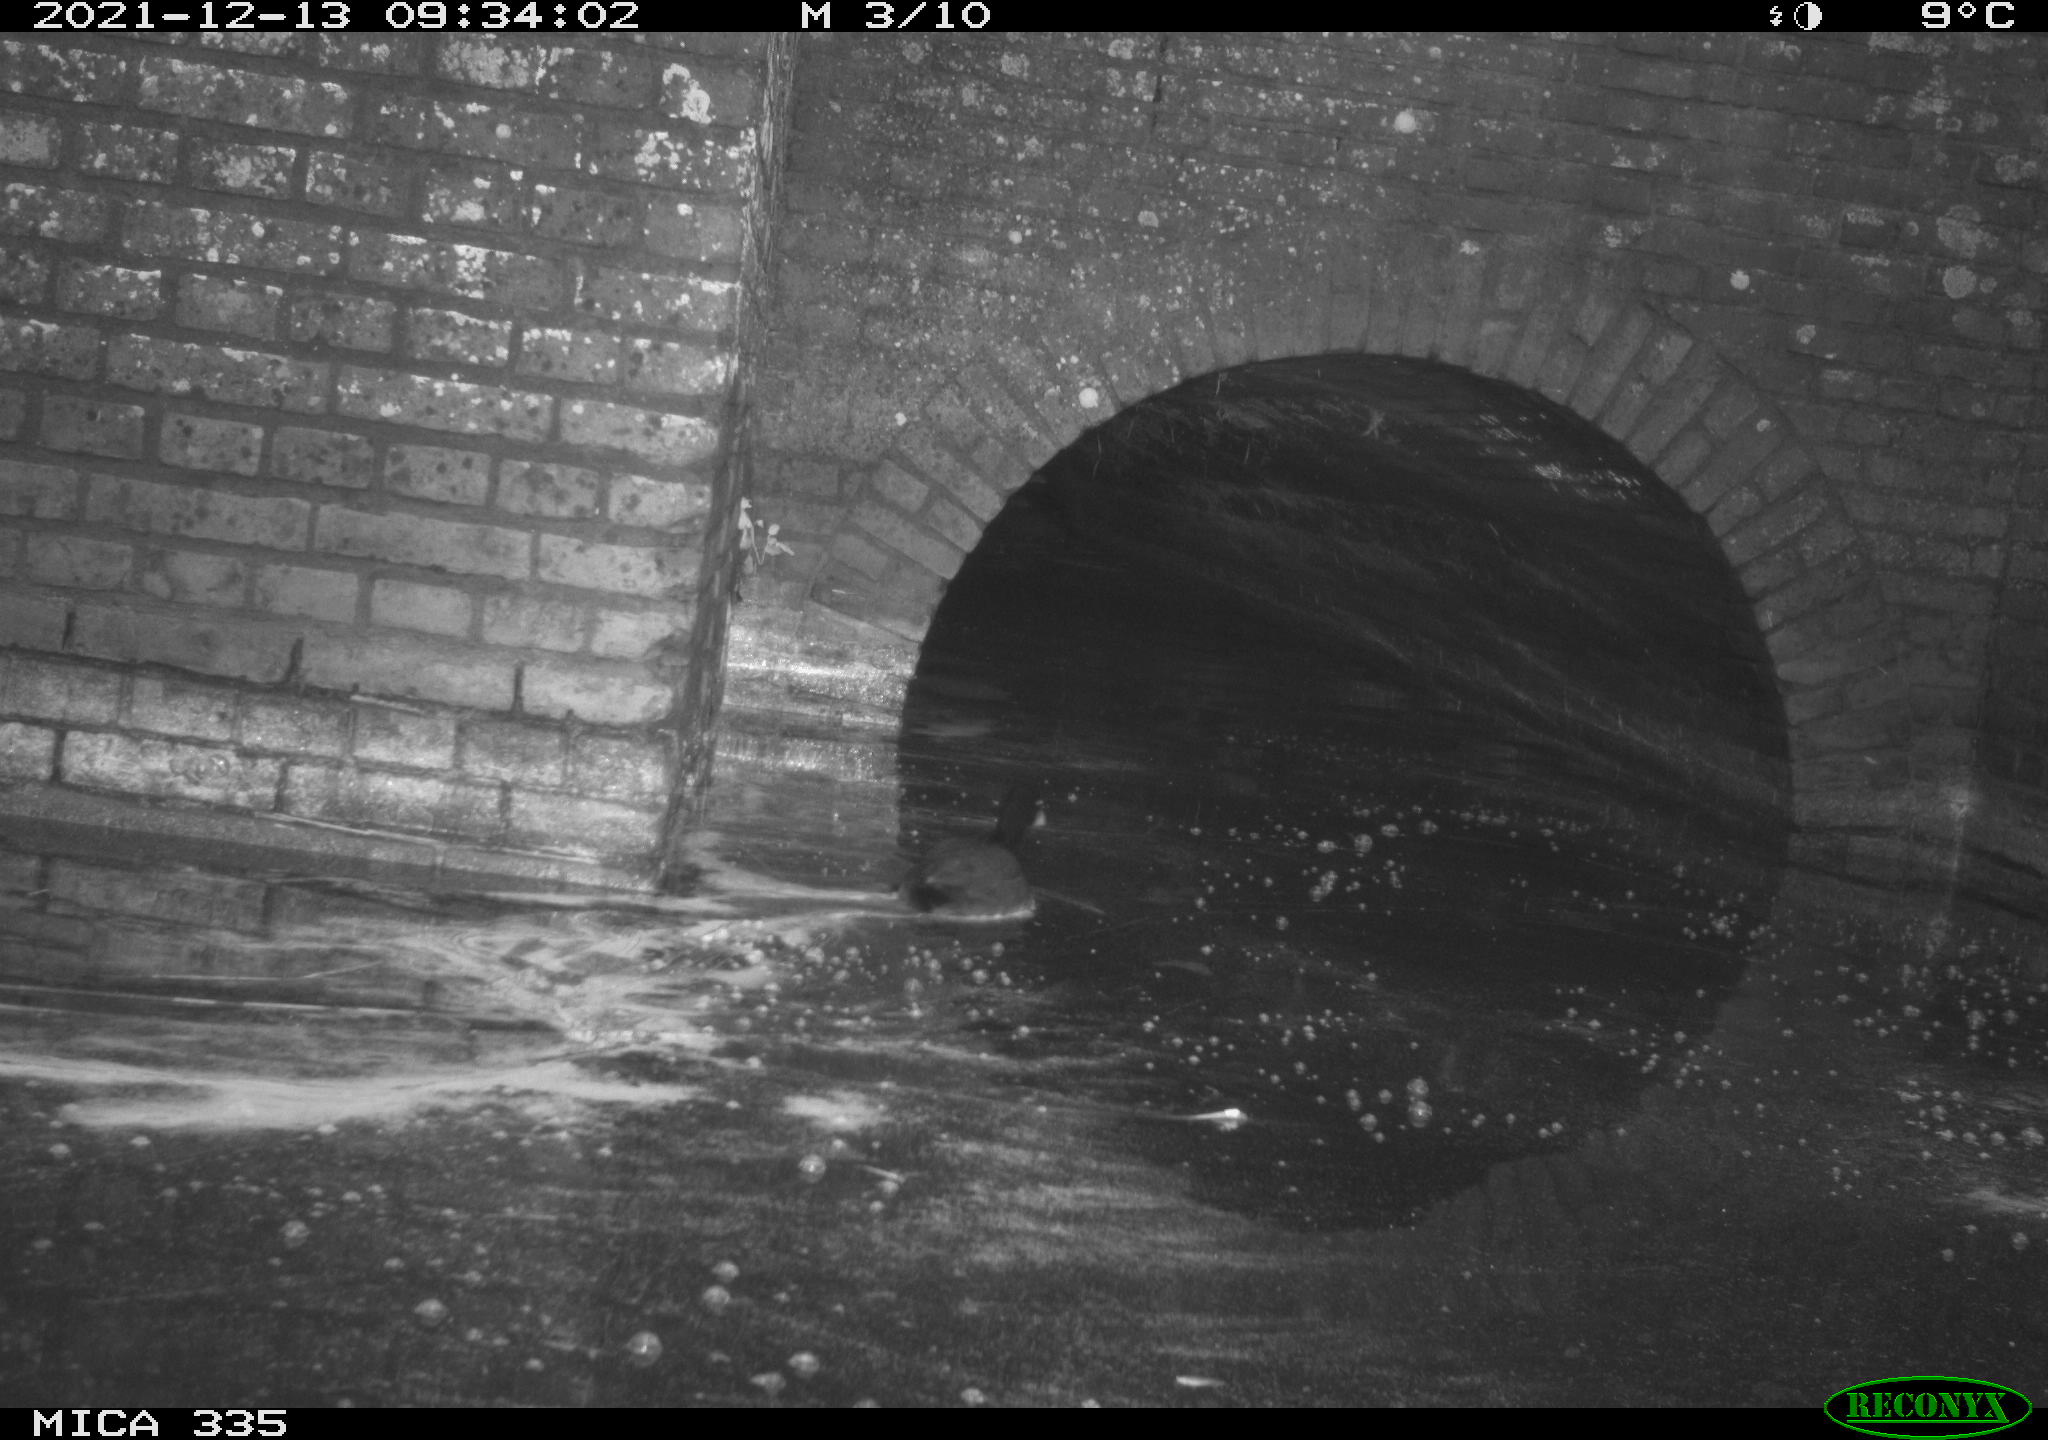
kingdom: Animalia
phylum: Chordata
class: Aves
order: Gruiformes
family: Rallidae
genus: Fulica
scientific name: Fulica atra
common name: Eurasian coot
